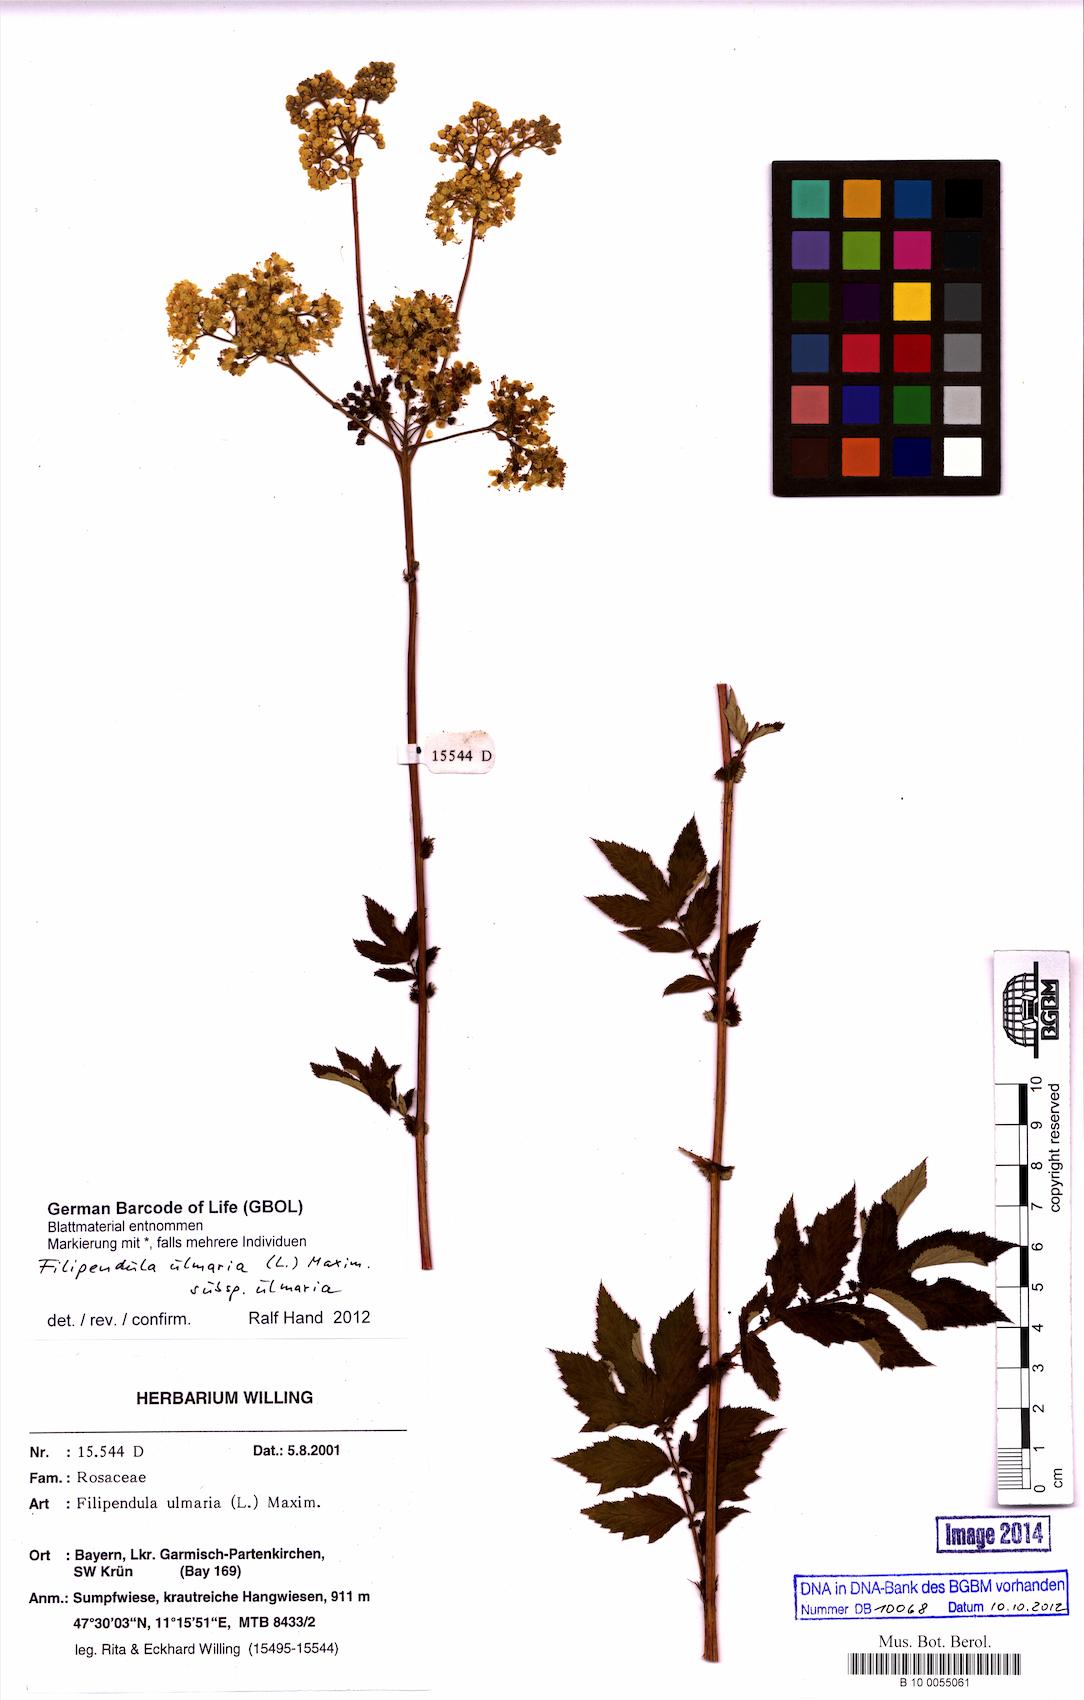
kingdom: Plantae
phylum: Tracheophyta
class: Magnoliopsida
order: Rosales
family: Rosaceae
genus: Filipendula
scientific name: Filipendula ulmaria
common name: Meadowsweet
